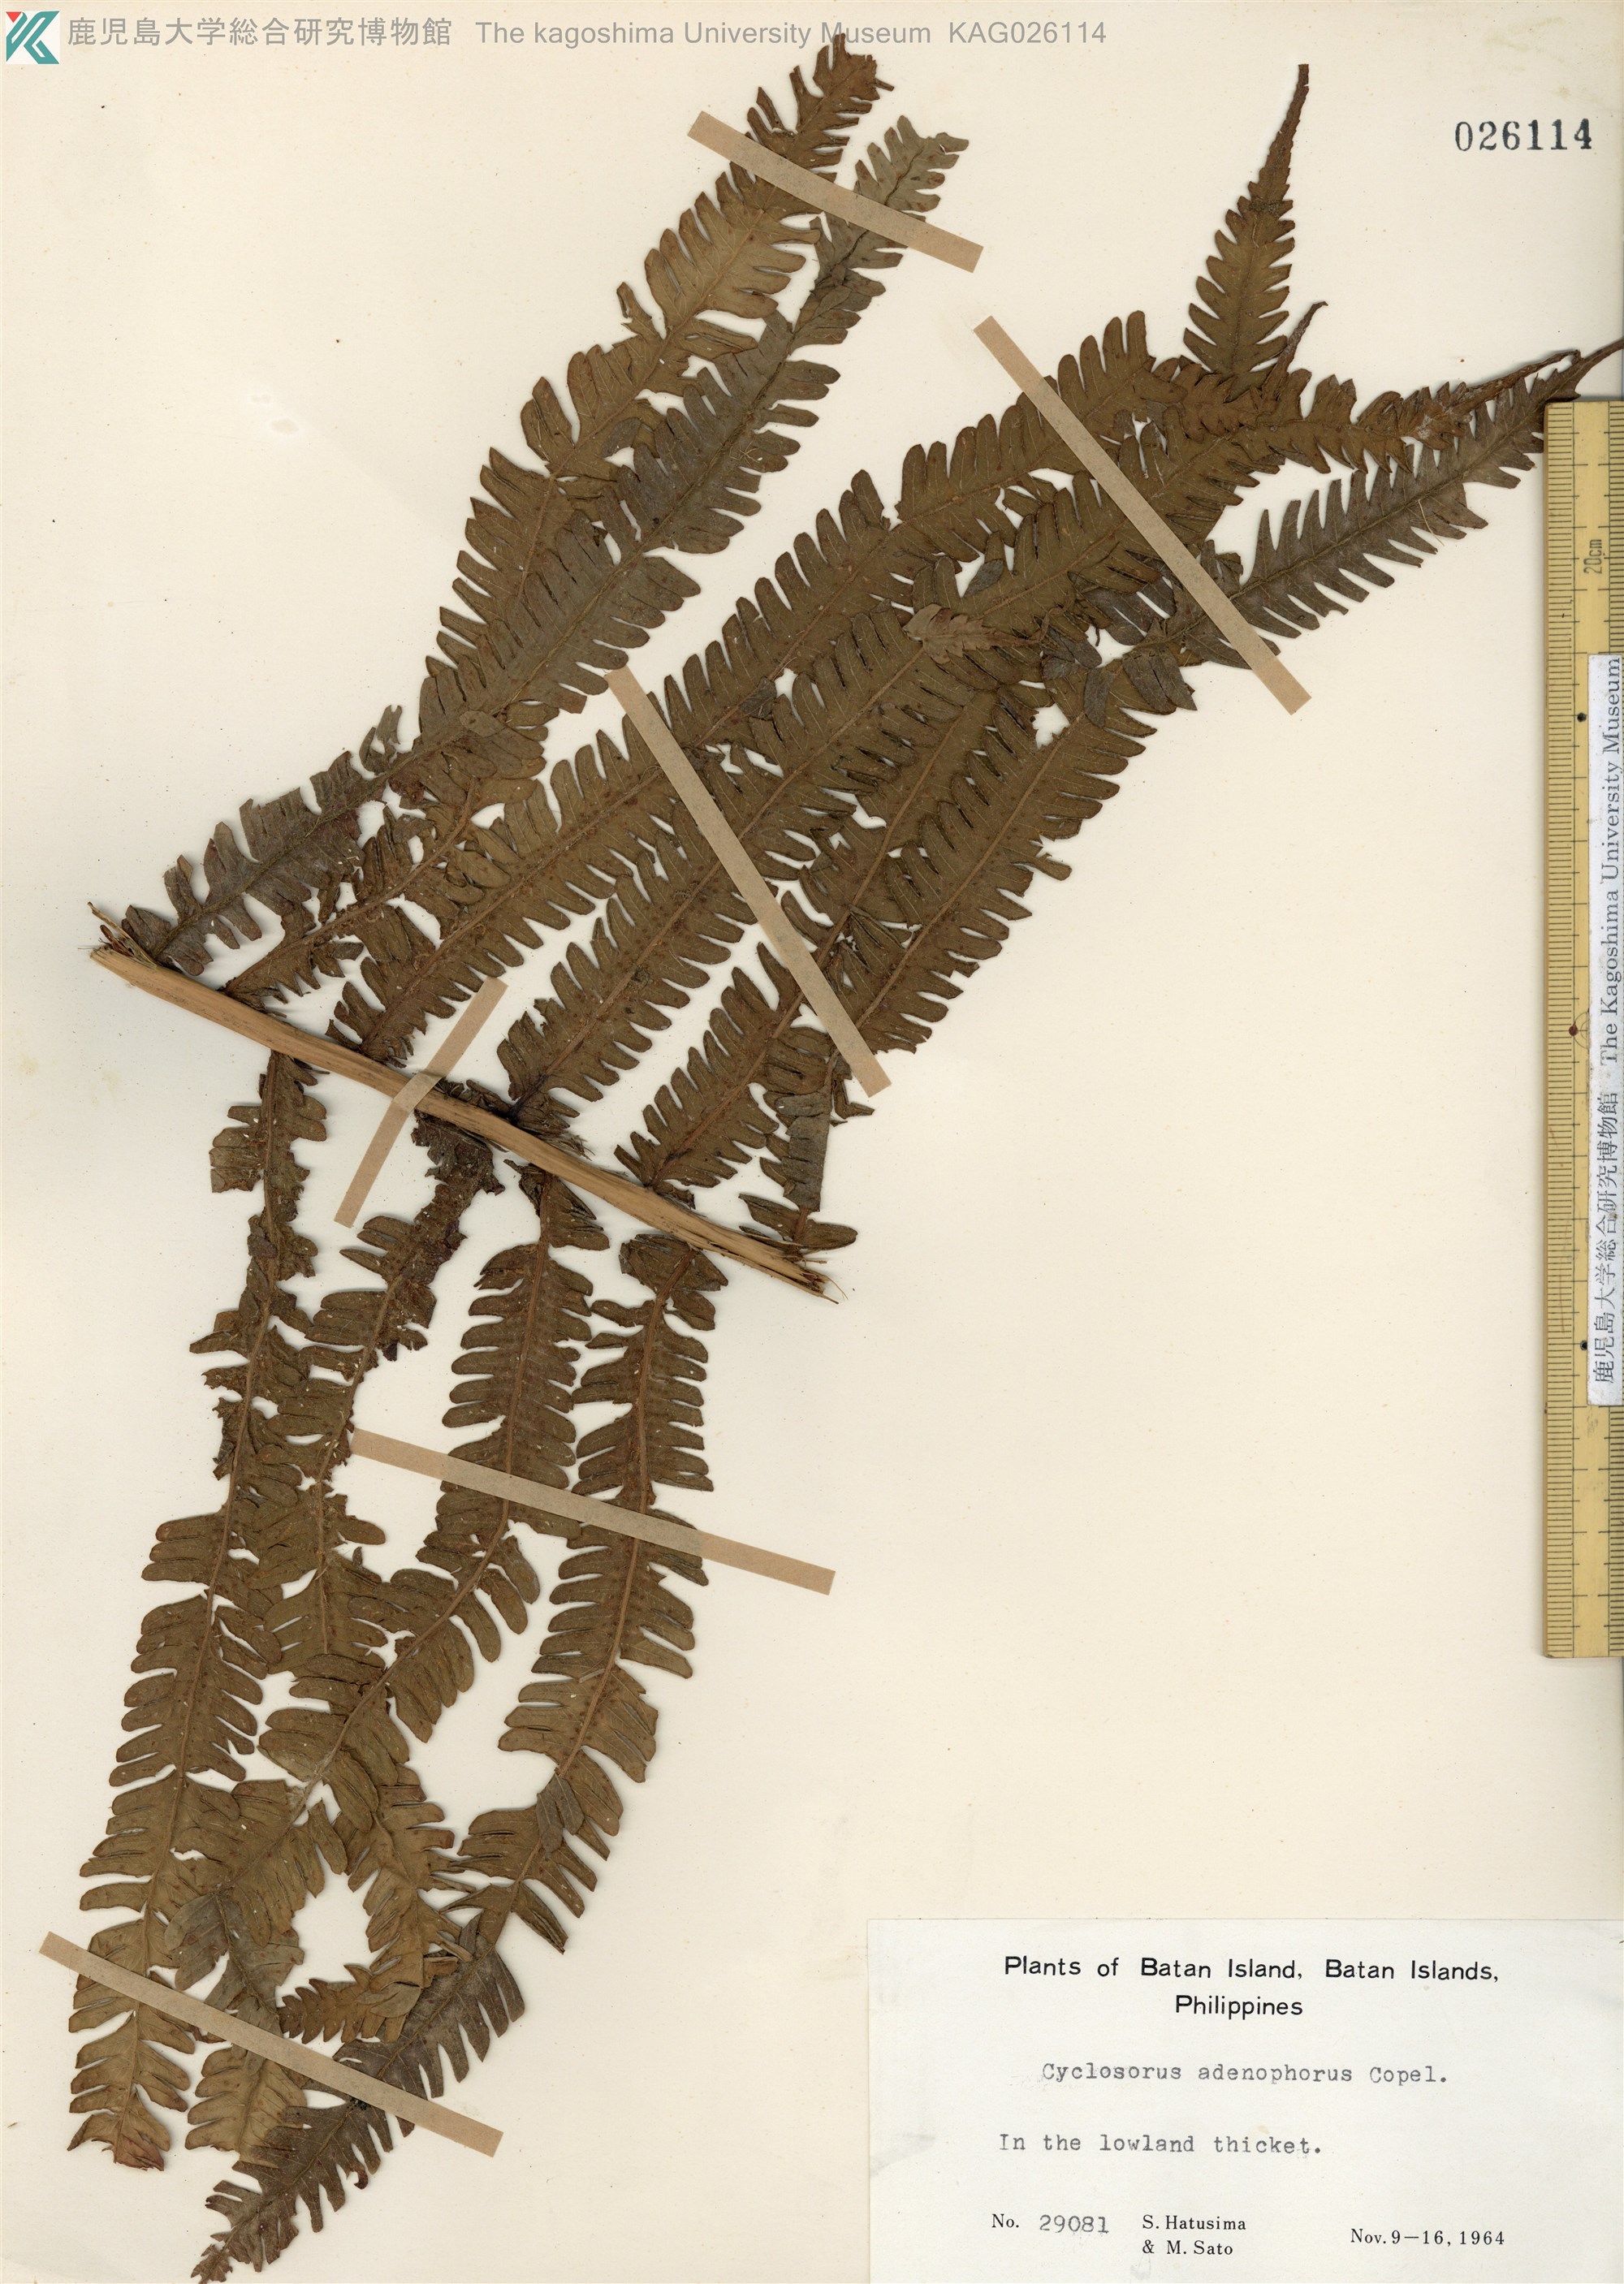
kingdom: Plantae
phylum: Tracheophyta
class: Polypodiopsida
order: Polypodiales
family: Thelypteridaceae
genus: Sphaerostephanos
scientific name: Sphaerostephanos hirsutus
